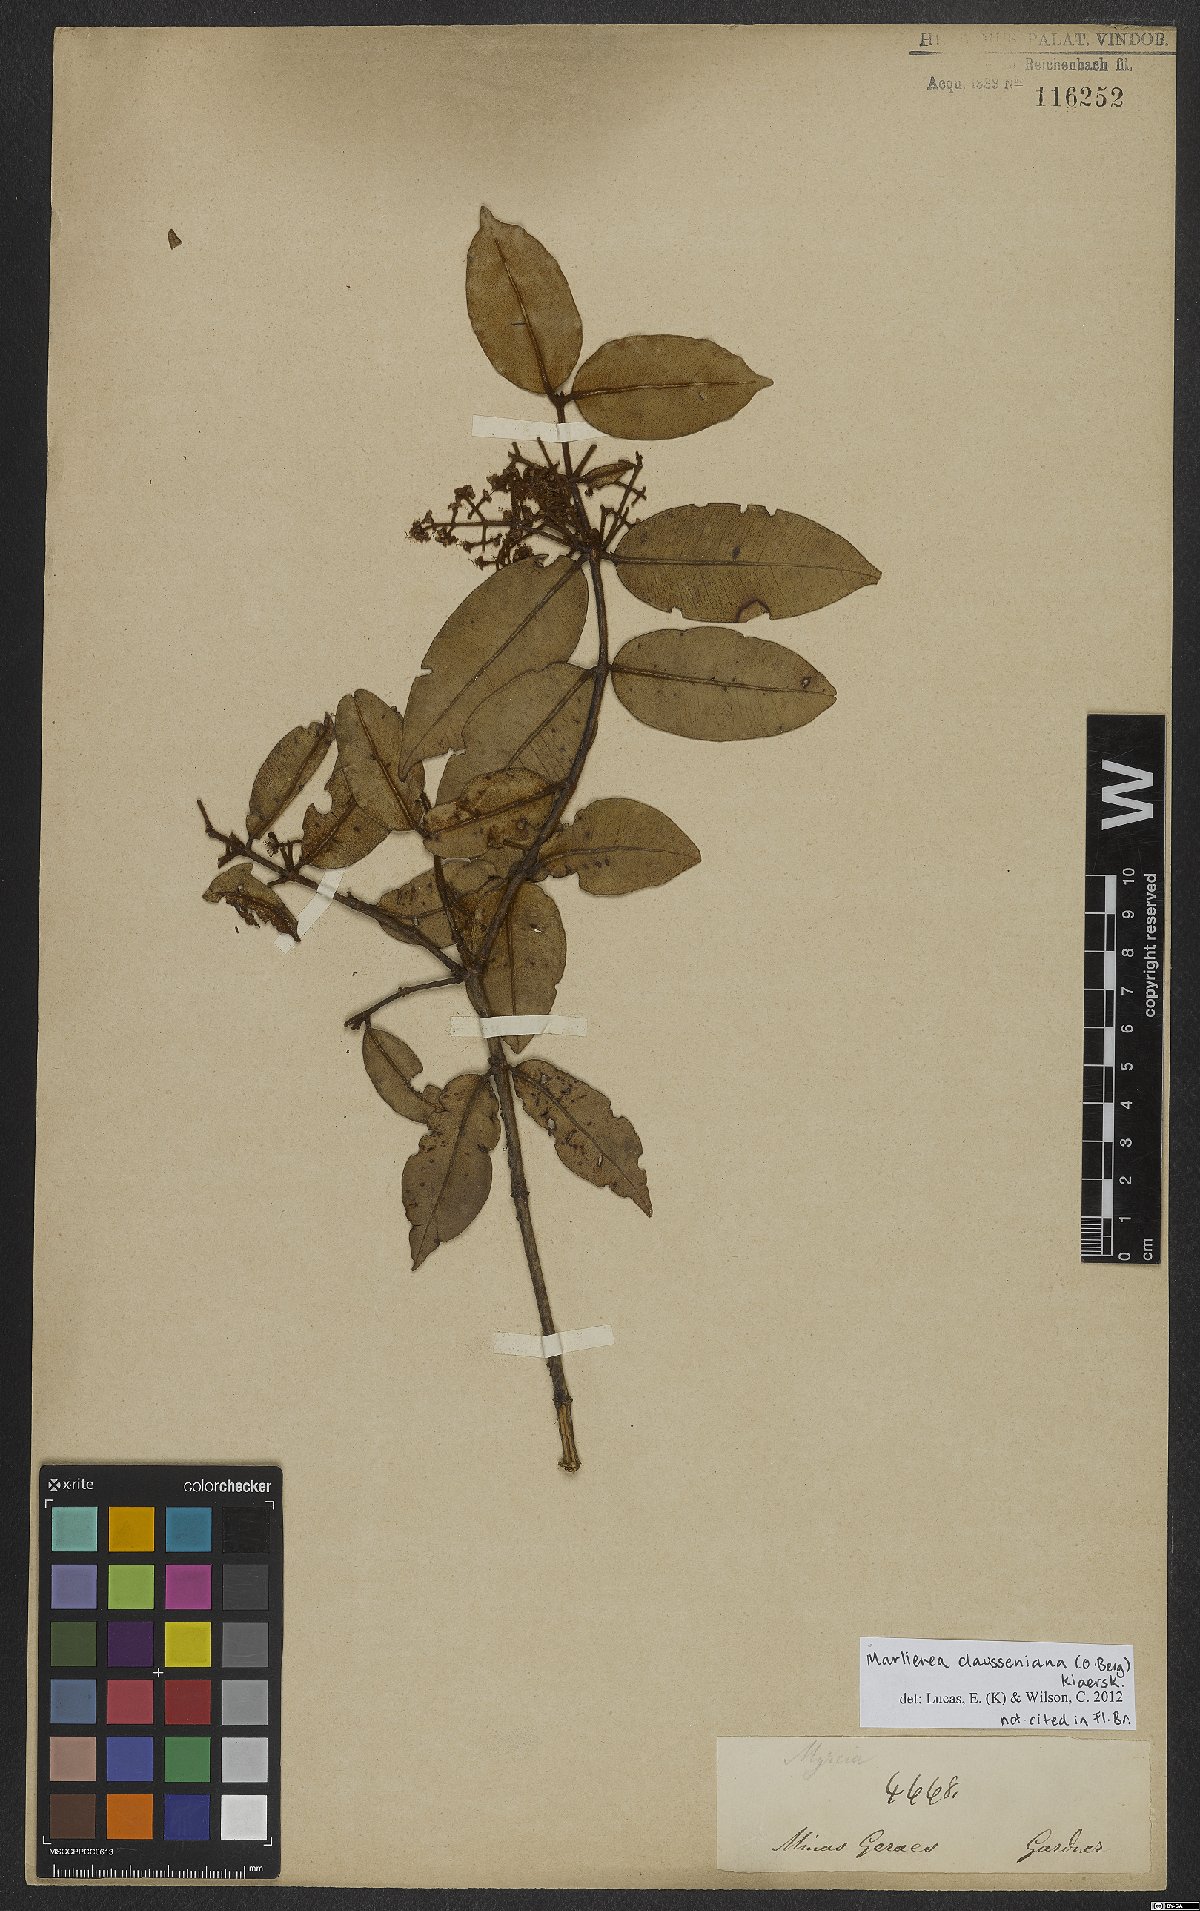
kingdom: Plantae
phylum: Tracheophyta
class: Magnoliopsida
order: Myrtales
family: Myrtaceae
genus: Marlierea
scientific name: Marlierea clausseniana
